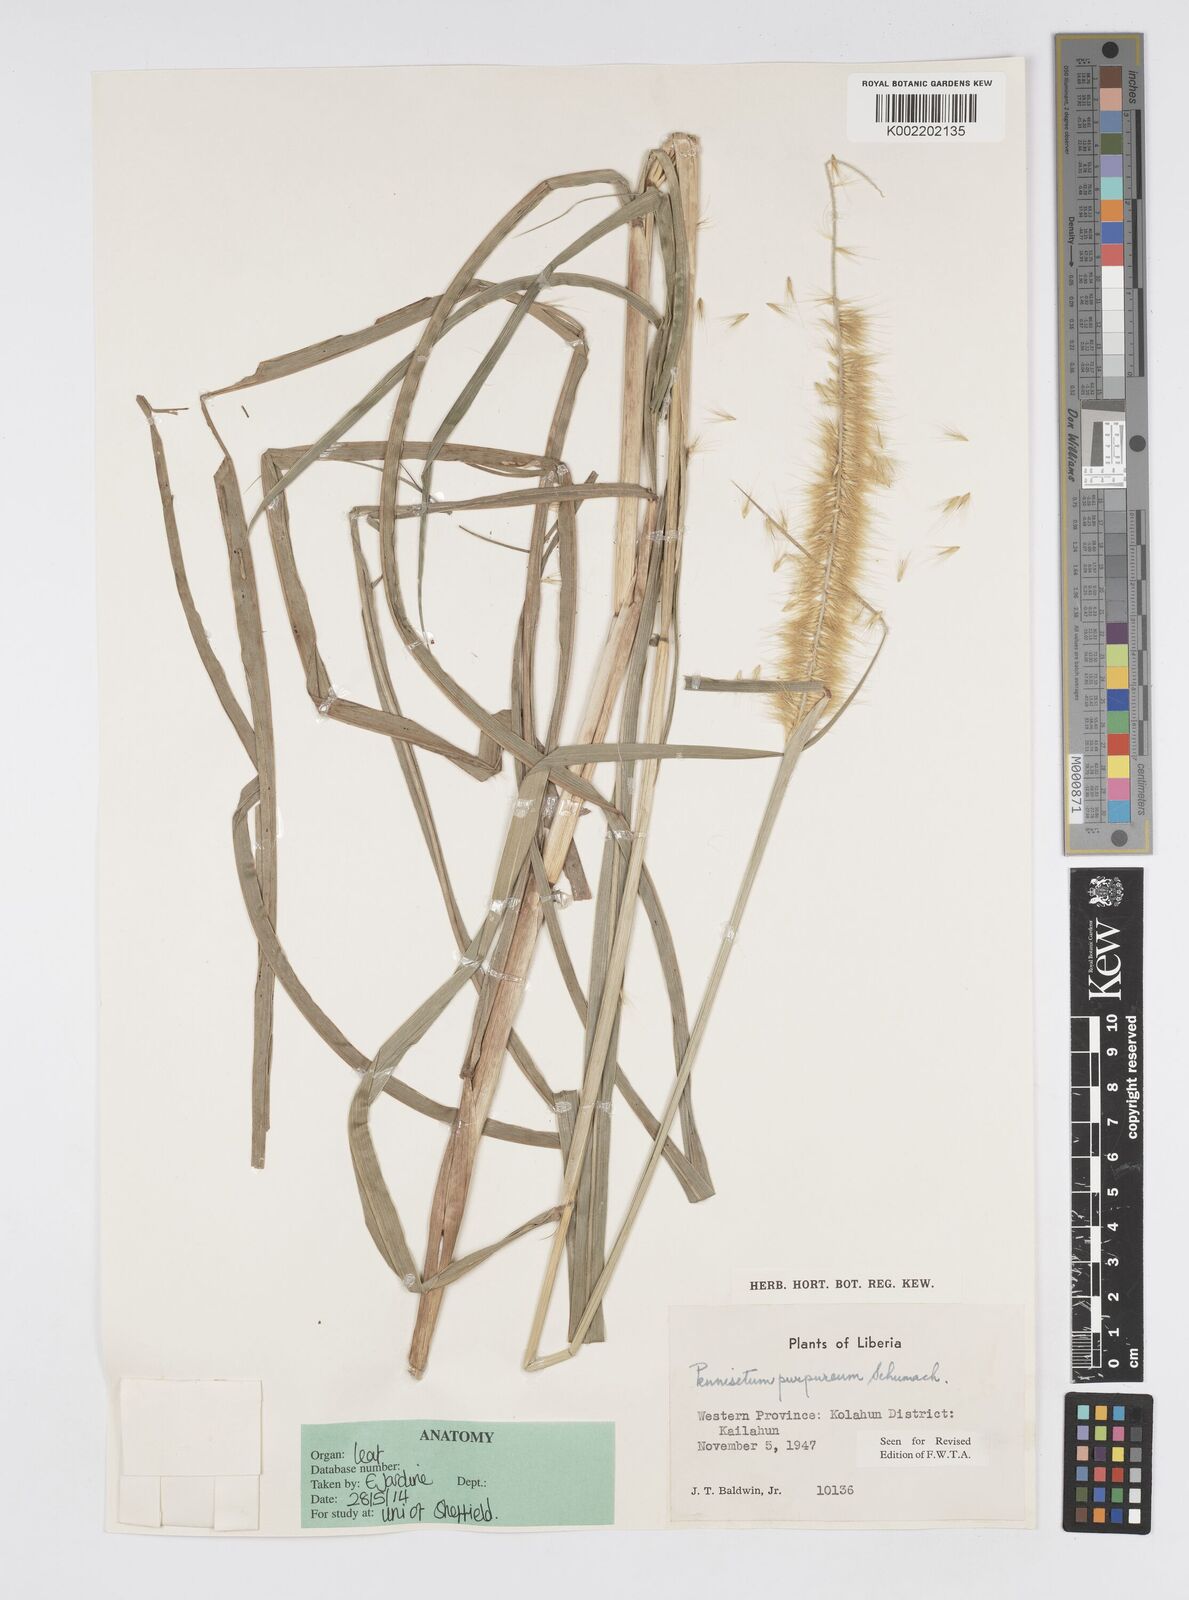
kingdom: Plantae
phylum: Tracheophyta
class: Liliopsida
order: Poales
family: Poaceae
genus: Cenchrus
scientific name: Cenchrus purpureus
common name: Elephant grass
